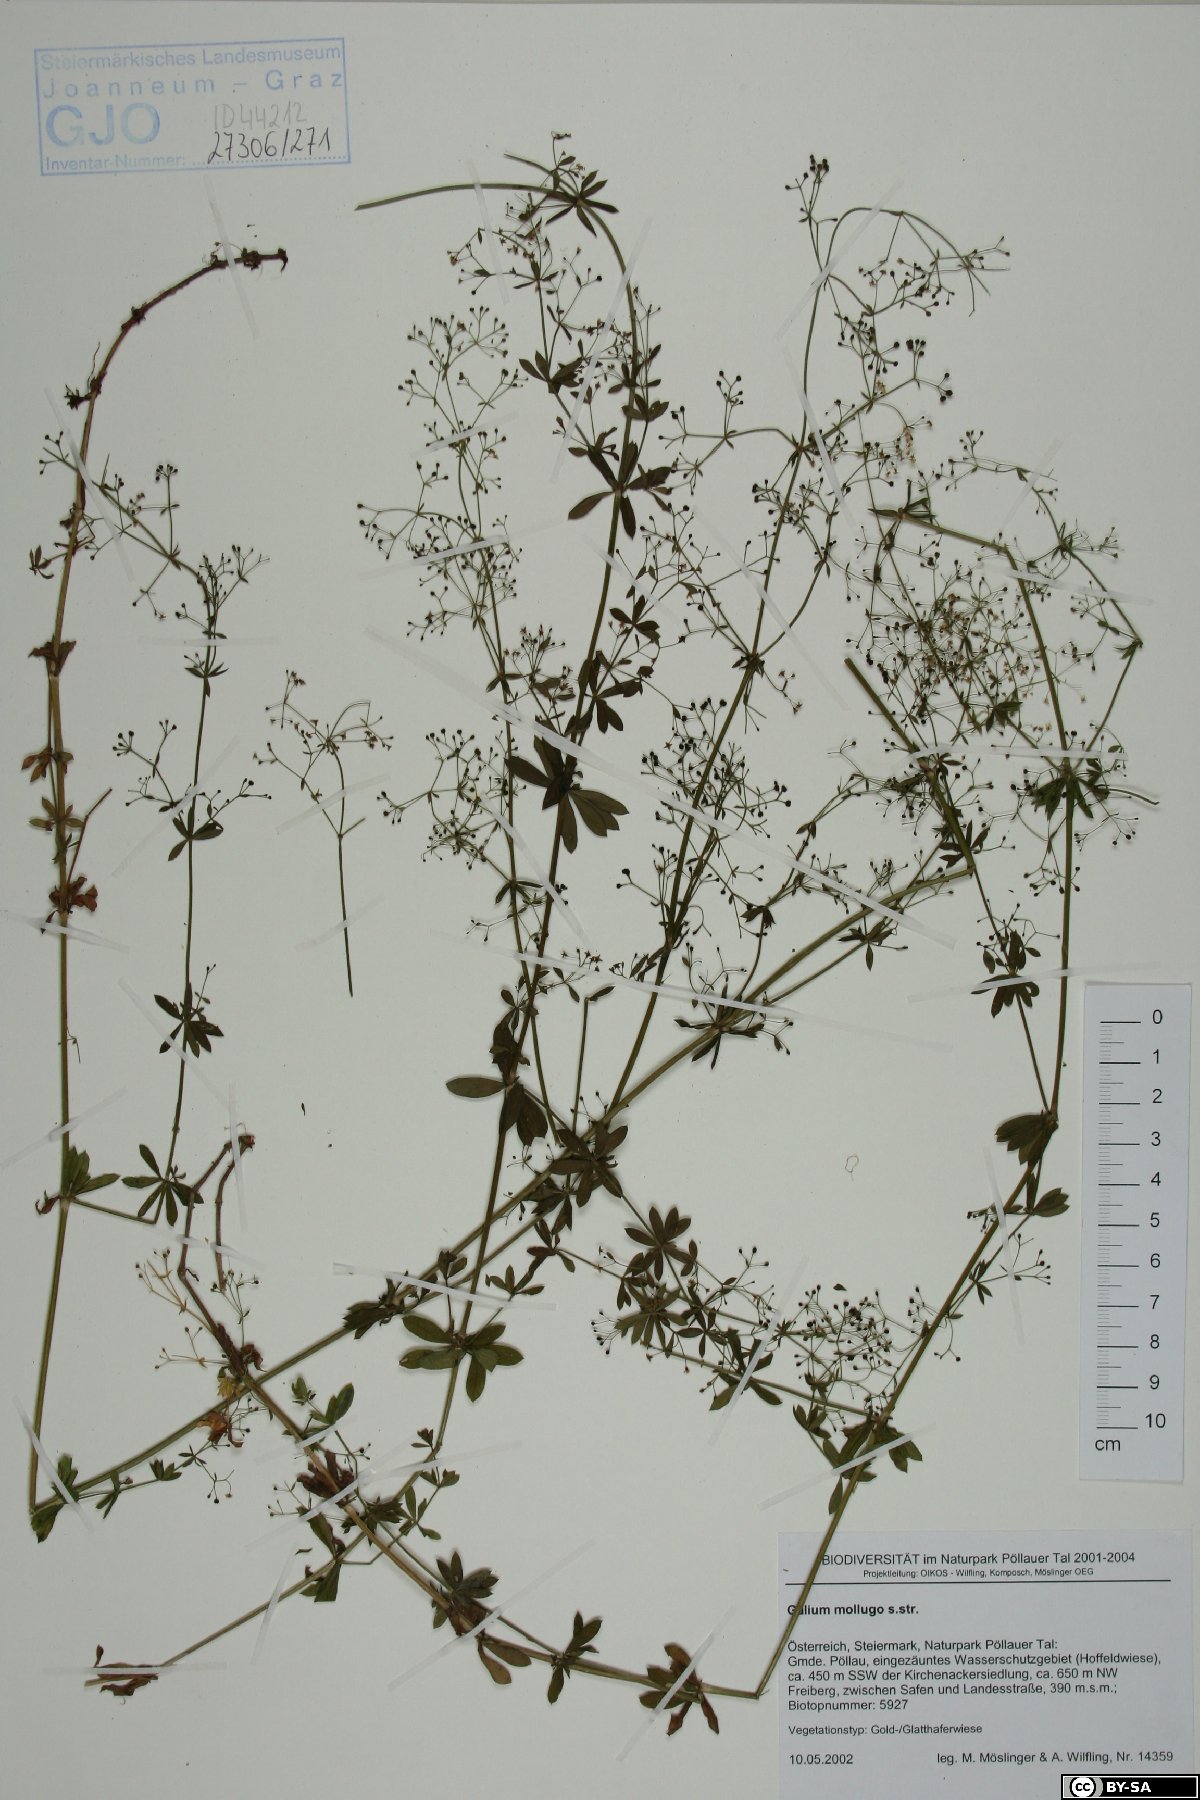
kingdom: Plantae
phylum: Tracheophyta
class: Magnoliopsida
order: Gentianales
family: Rubiaceae
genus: Galium
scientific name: Galium mollugo
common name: Hedge bedstraw
